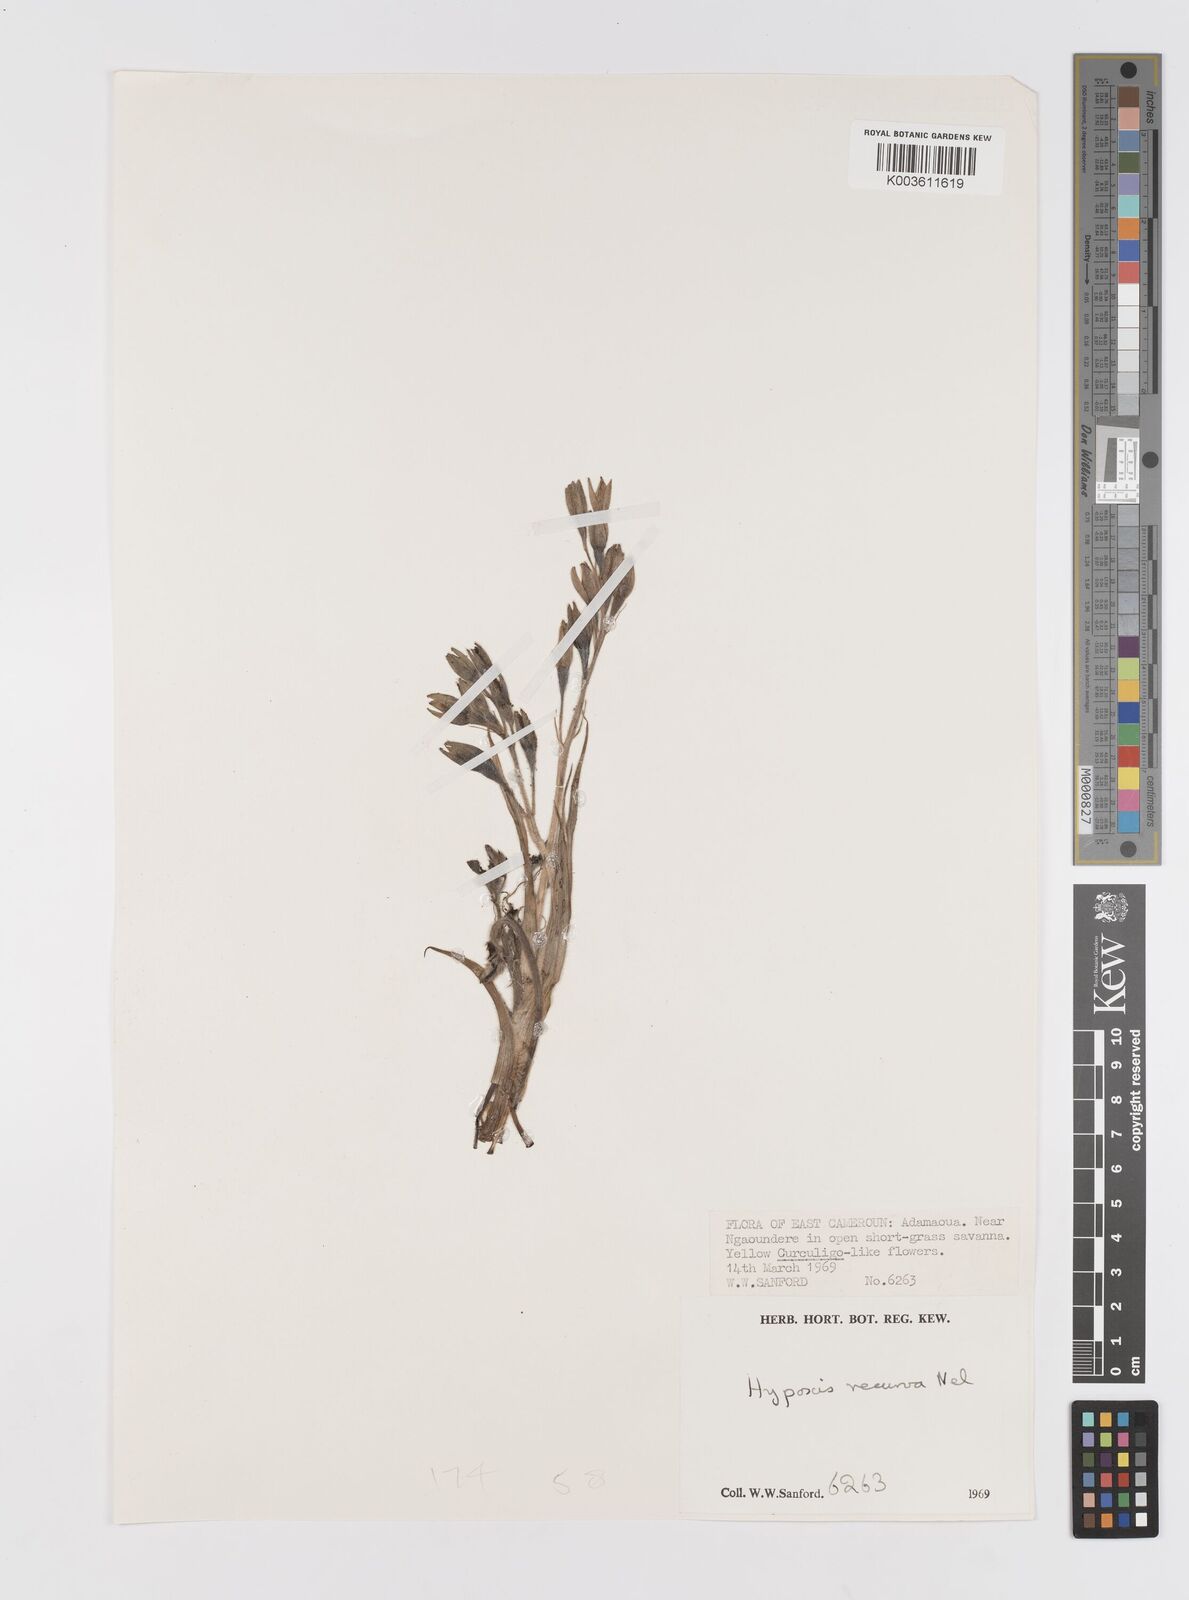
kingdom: Plantae
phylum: Tracheophyta
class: Liliopsida
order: Asparagales
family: Hypoxidaceae
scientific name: Hypoxidaceae
